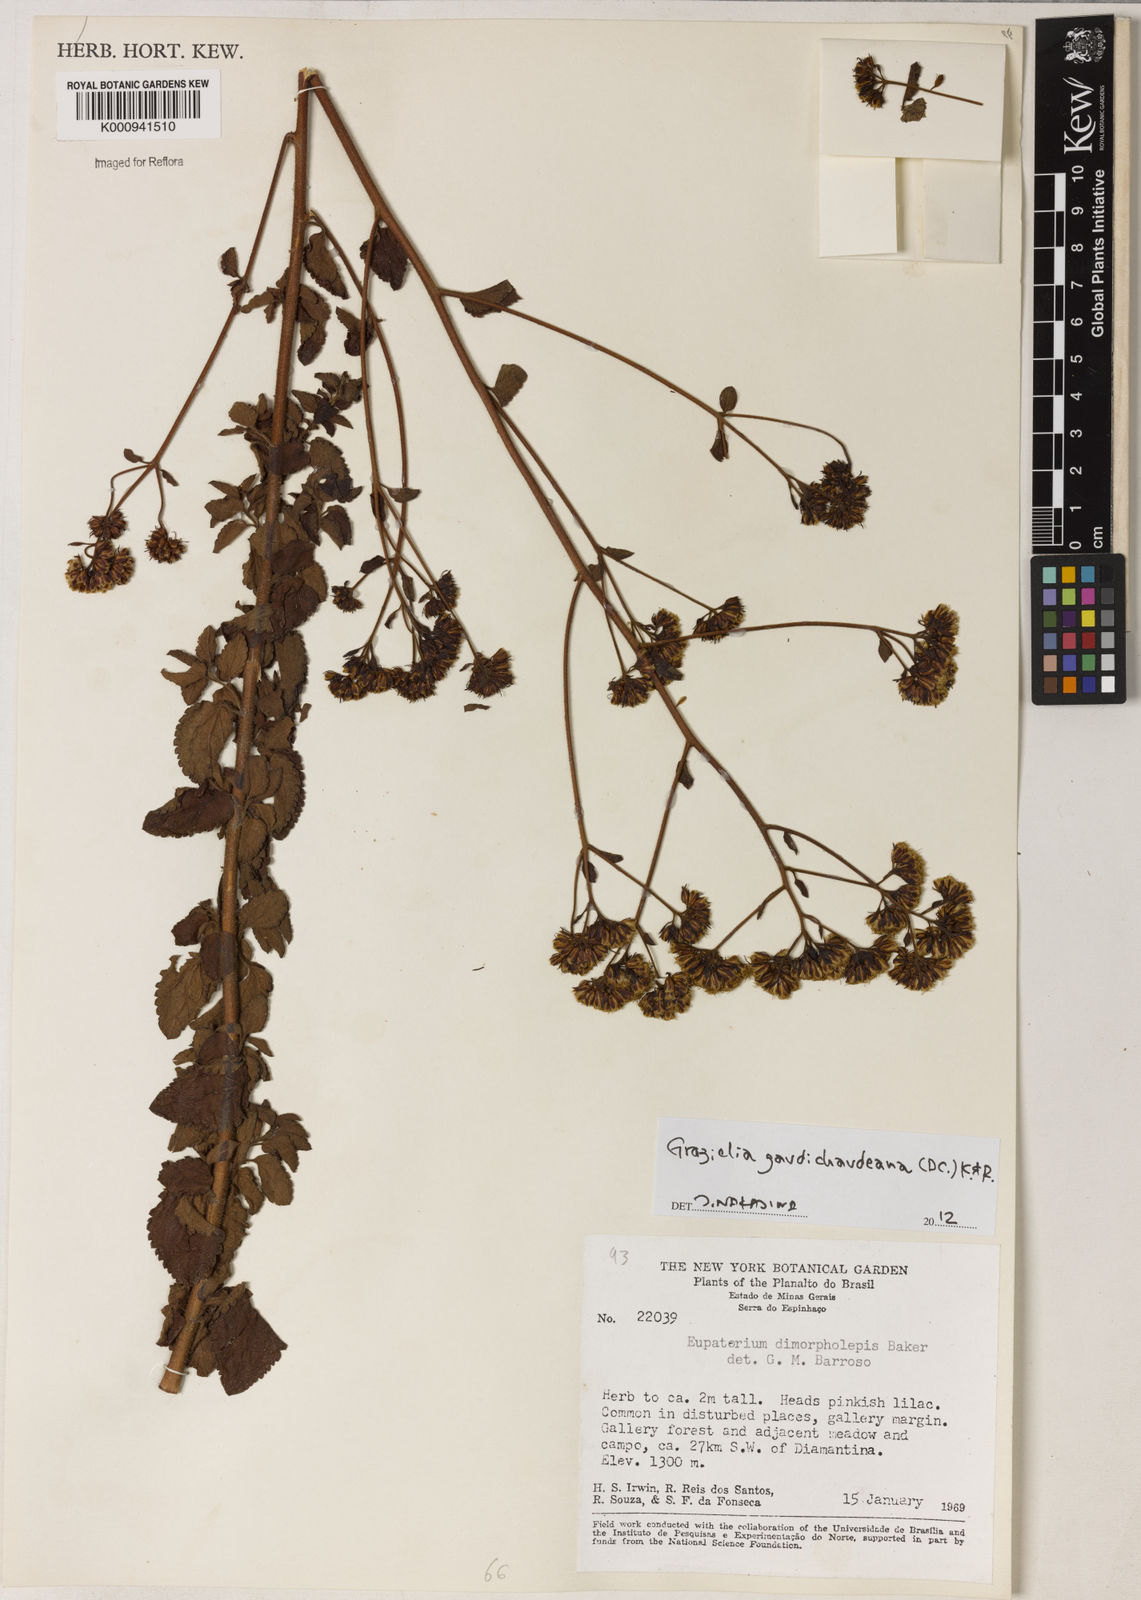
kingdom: Plantae
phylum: Tracheophyta
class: Magnoliopsida
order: Asterales
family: Asteraceae
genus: Grazielia
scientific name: Grazielia
